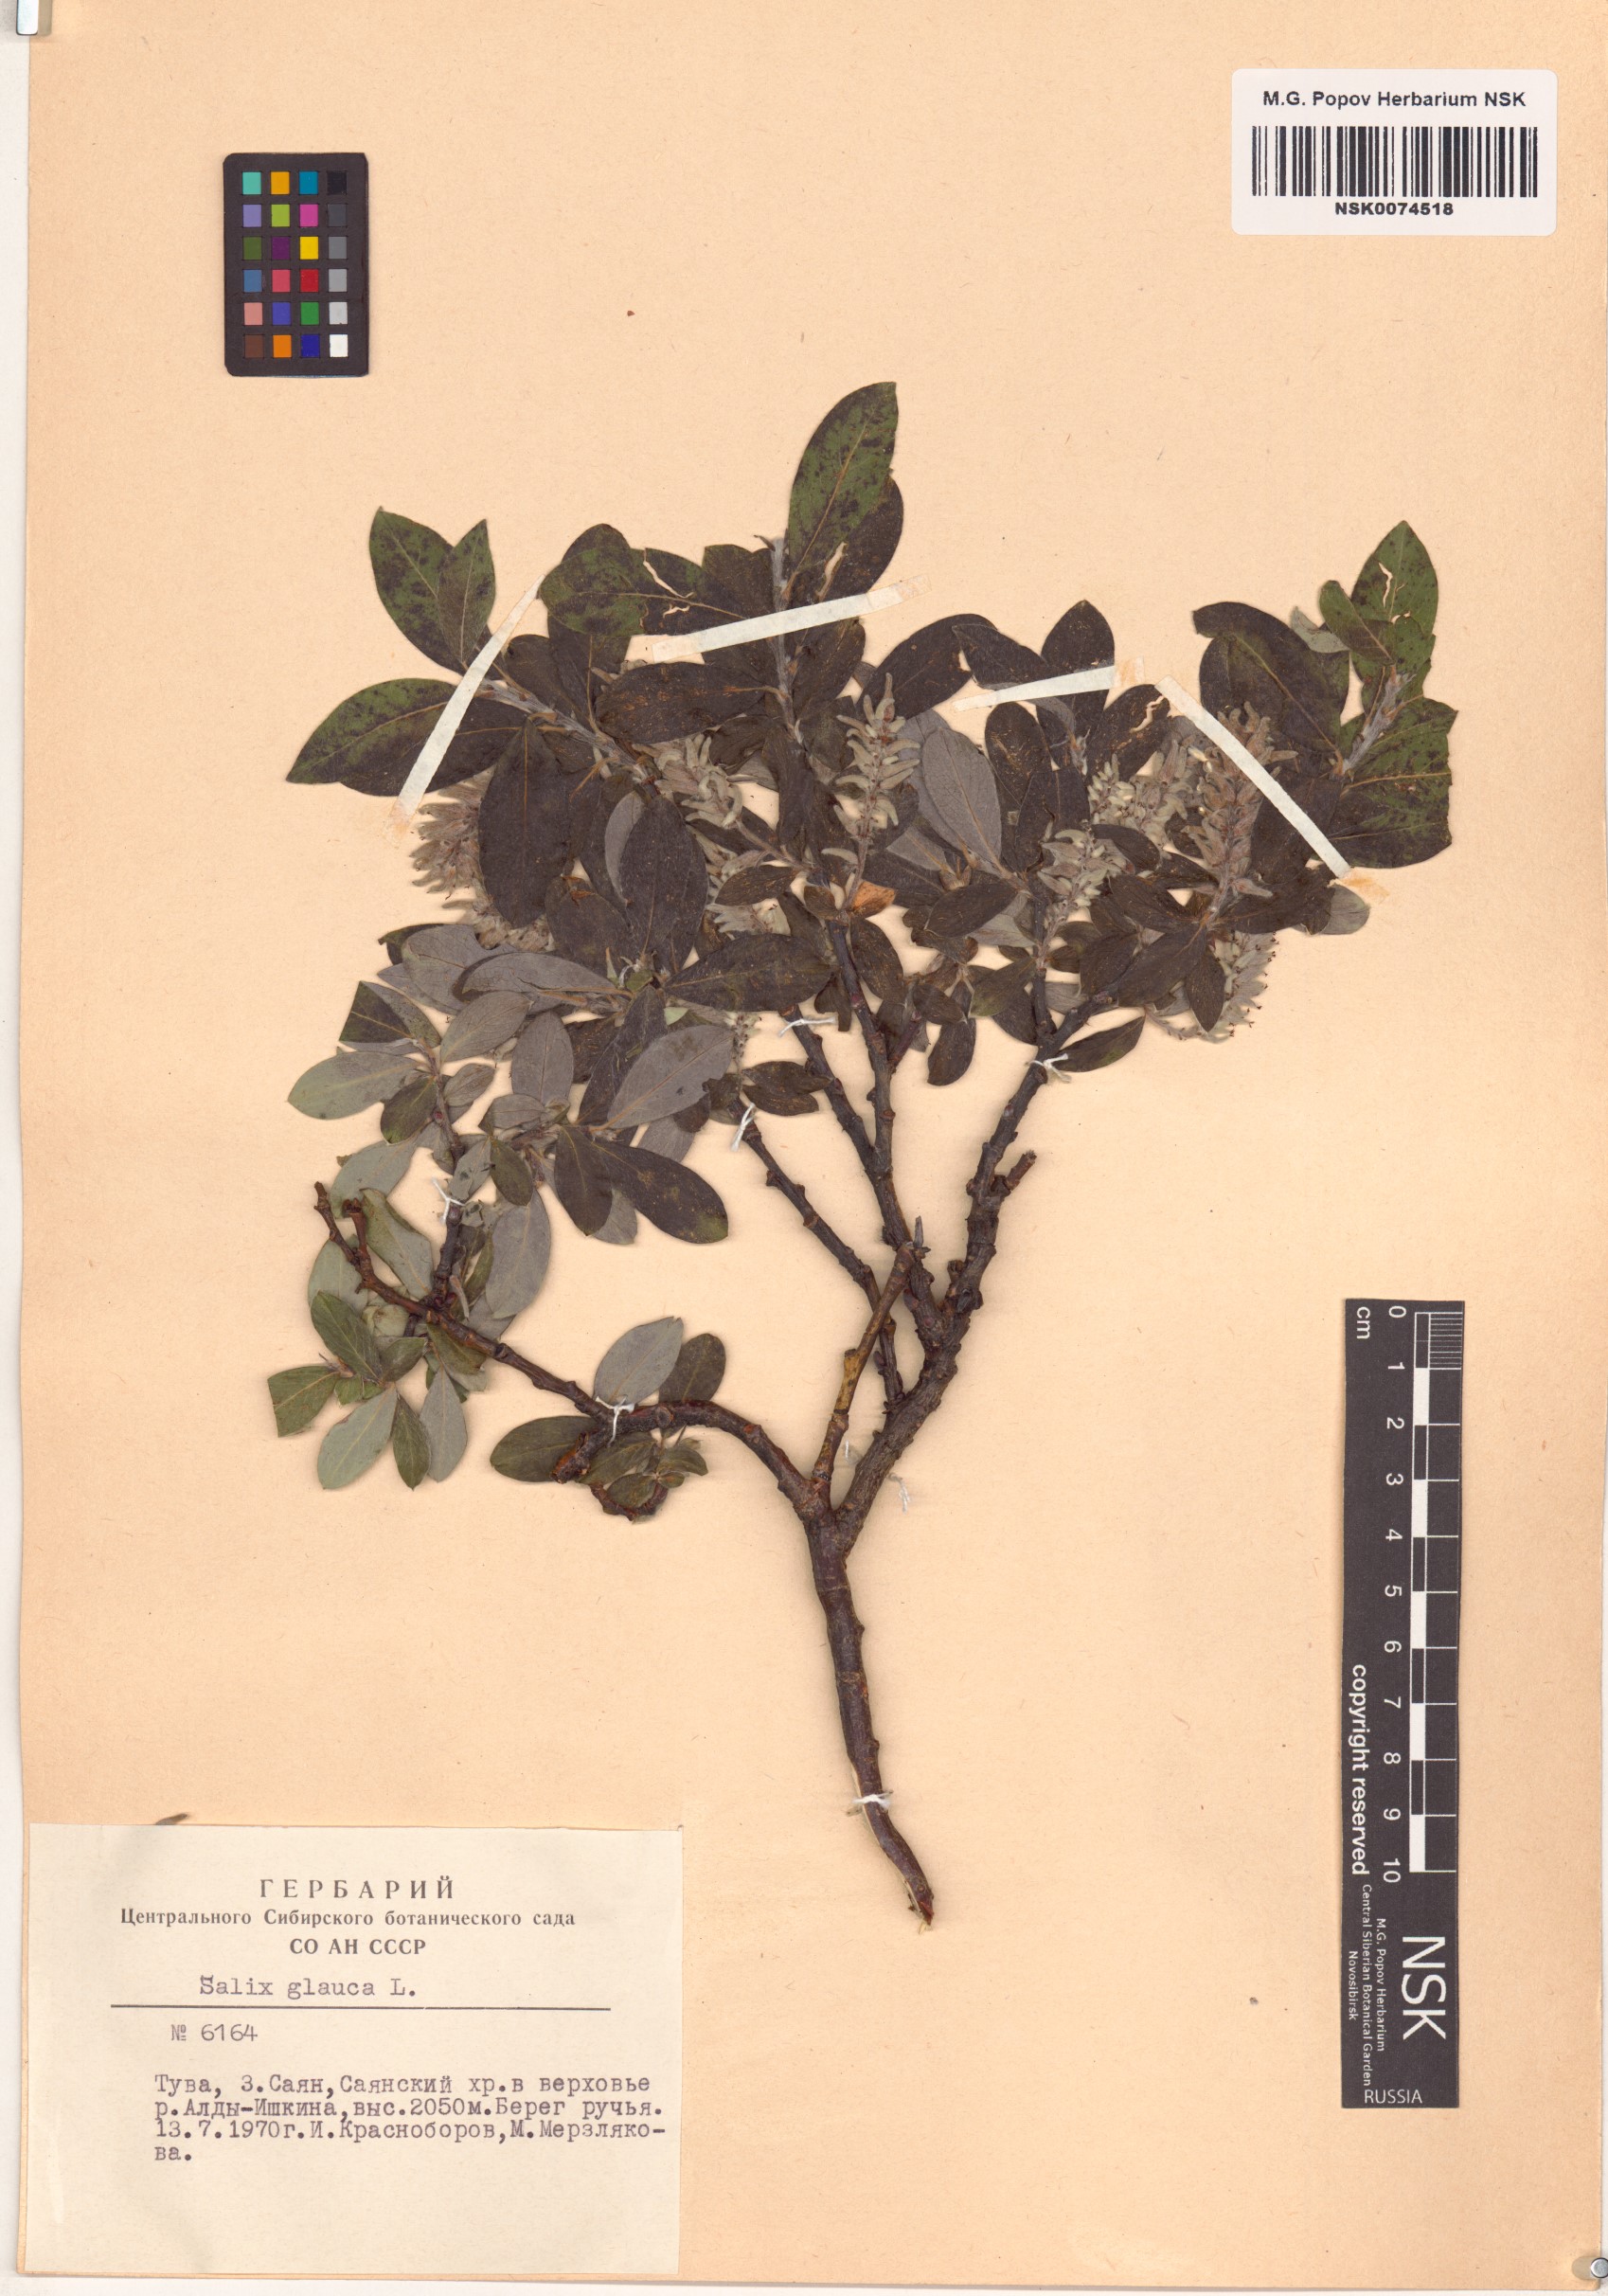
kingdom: Plantae
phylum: Tracheophyta
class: Magnoliopsida
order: Malpighiales
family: Salicaceae
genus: Salix
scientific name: Salix glauca
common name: Glaucous willow
